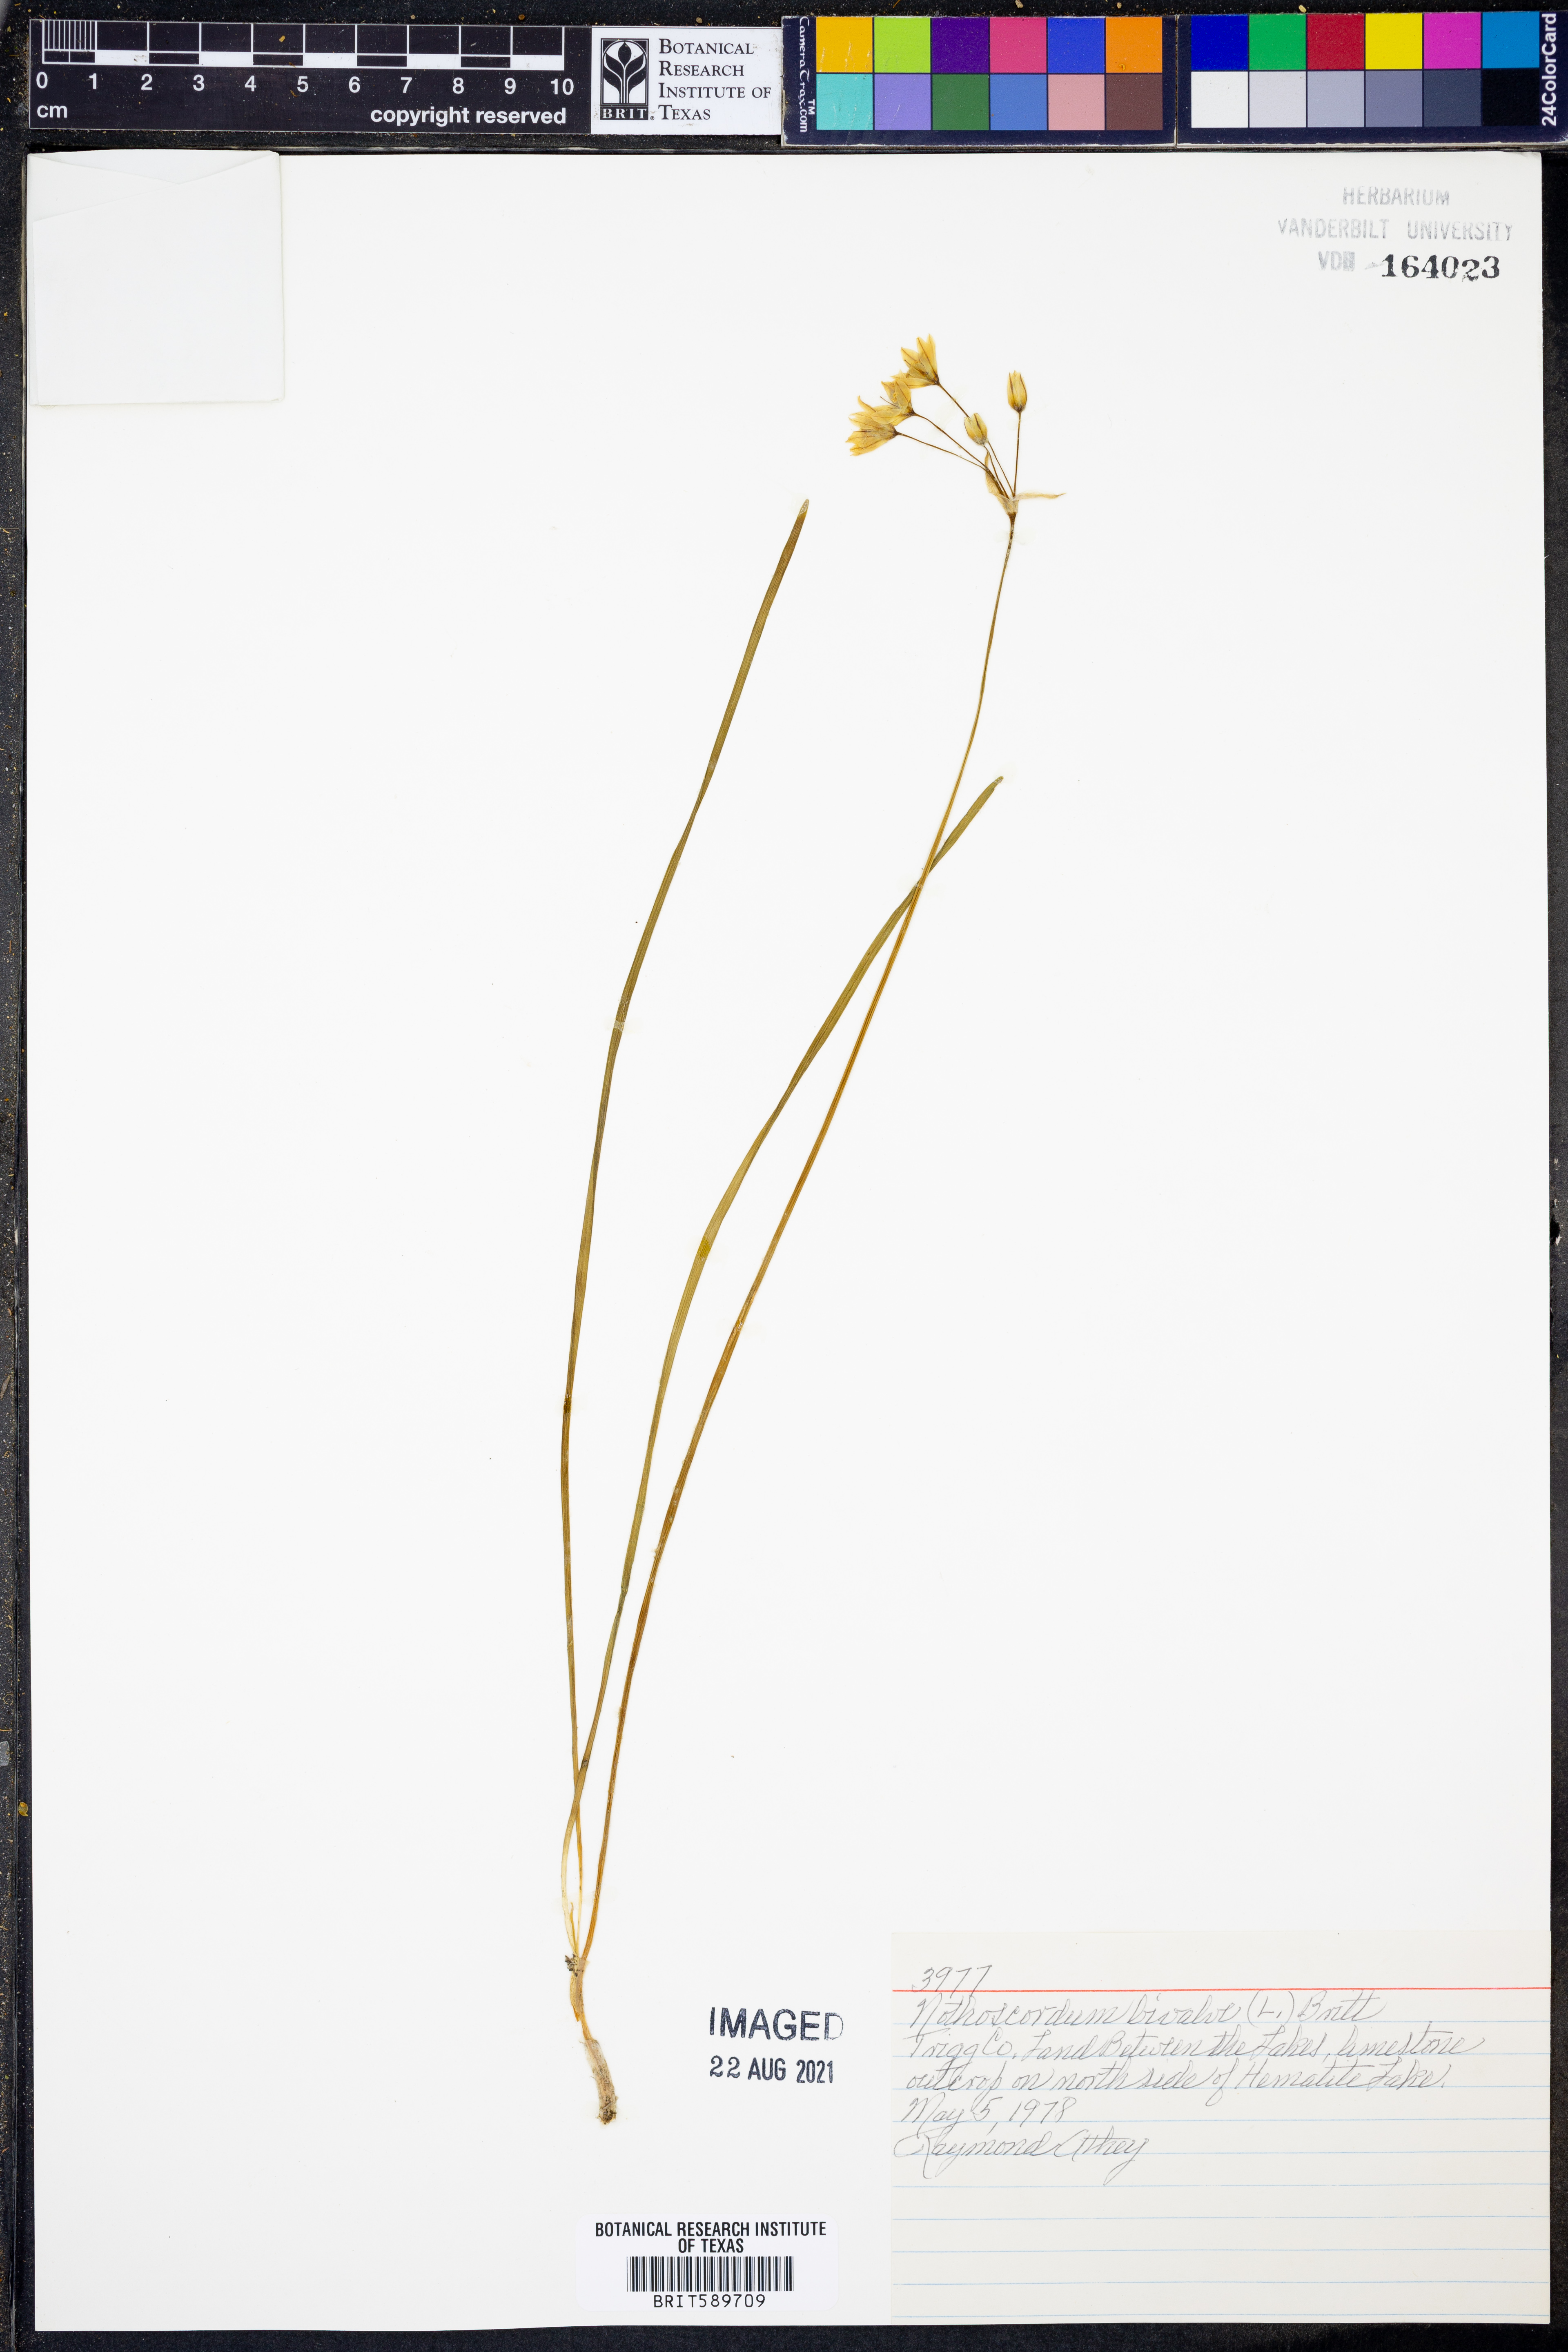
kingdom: Plantae
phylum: Tracheophyta
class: Liliopsida
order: Asparagales
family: Amaryllidaceae
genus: Nothoscordum
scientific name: Nothoscordum bivalve
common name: Crow-poison
